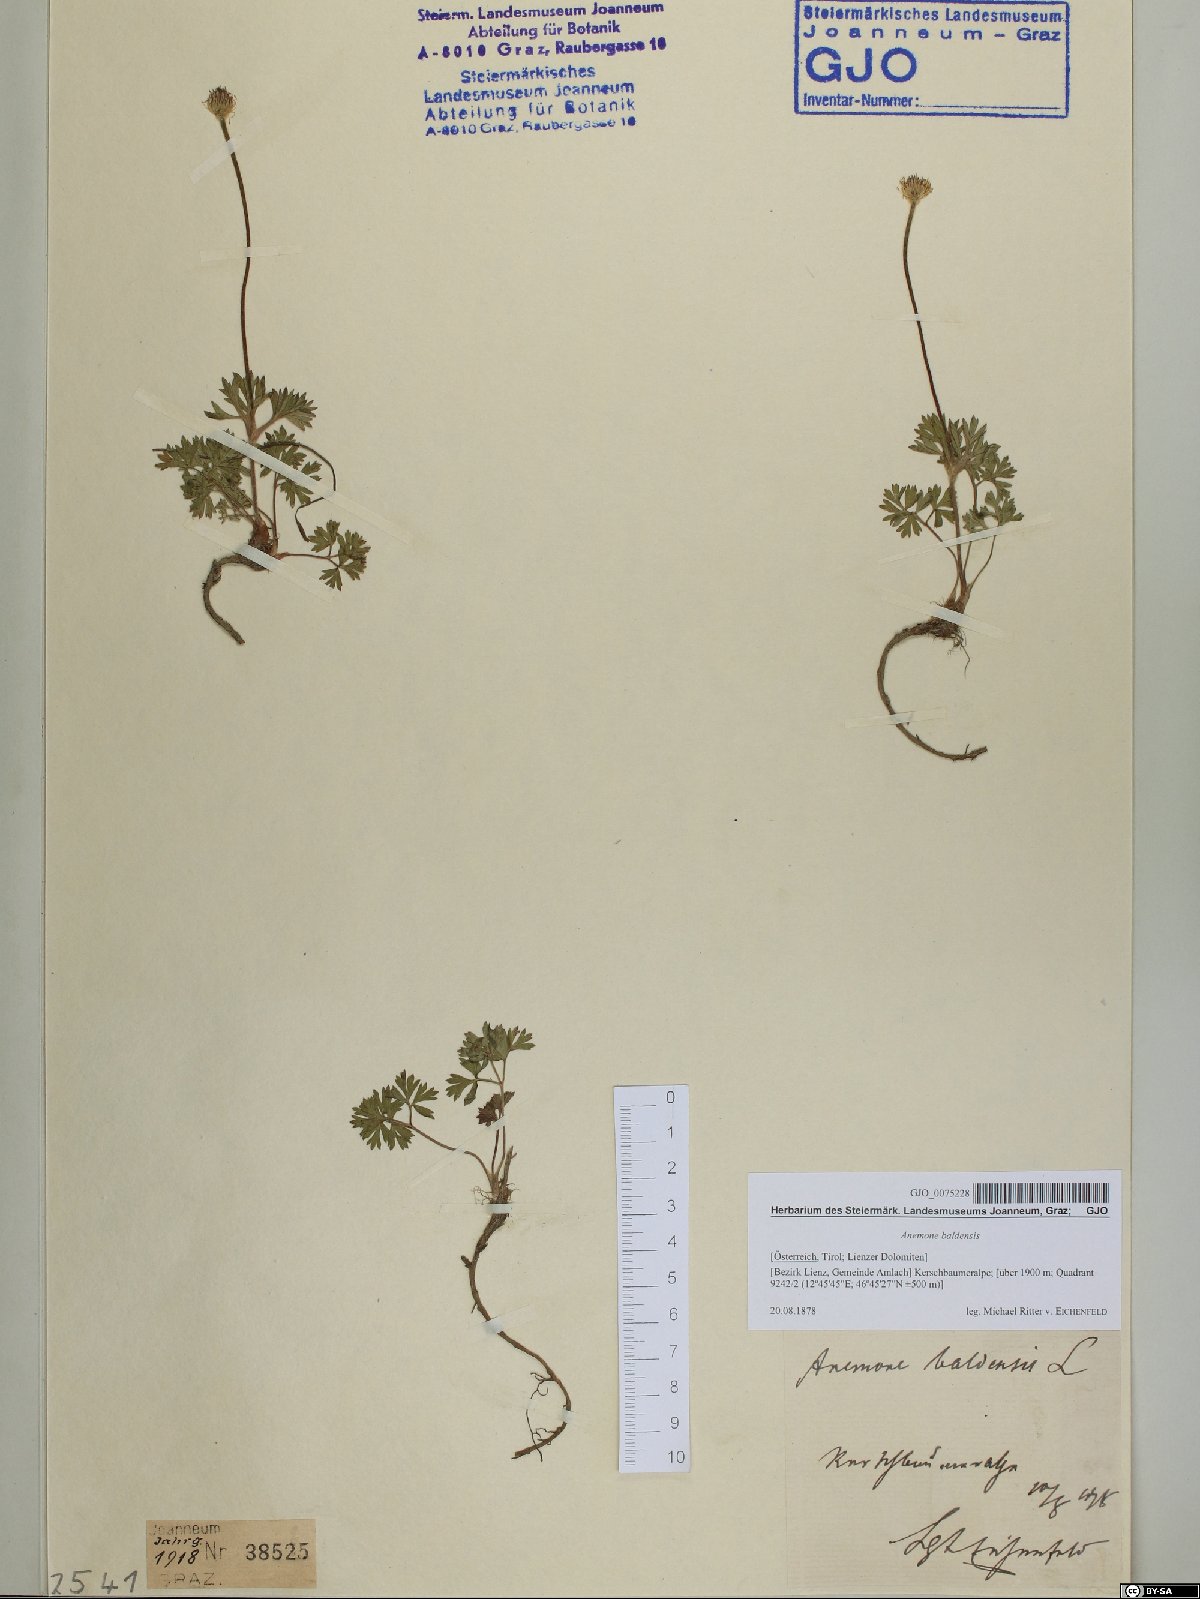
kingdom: Plantae
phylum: Tracheophyta
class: Magnoliopsida
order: Ranunculales
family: Ranunculaceae
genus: Anemone
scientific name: Anemone baldensis
